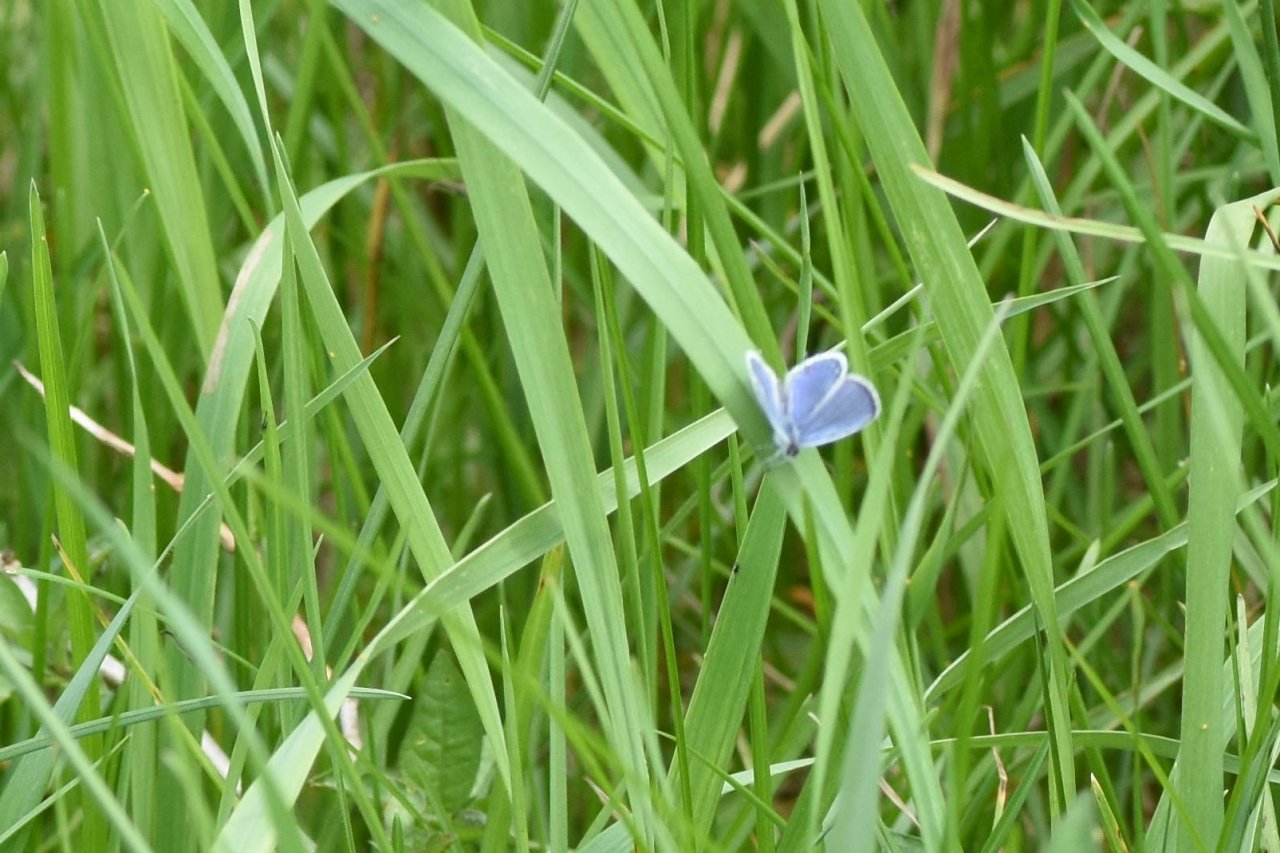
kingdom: Animalia
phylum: Arthropoda
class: Insecta
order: Lepidoptera
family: Lycaenidae
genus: Elkalyce
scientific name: Elkalyce comyntas
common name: Eastern Tailed-Blue
